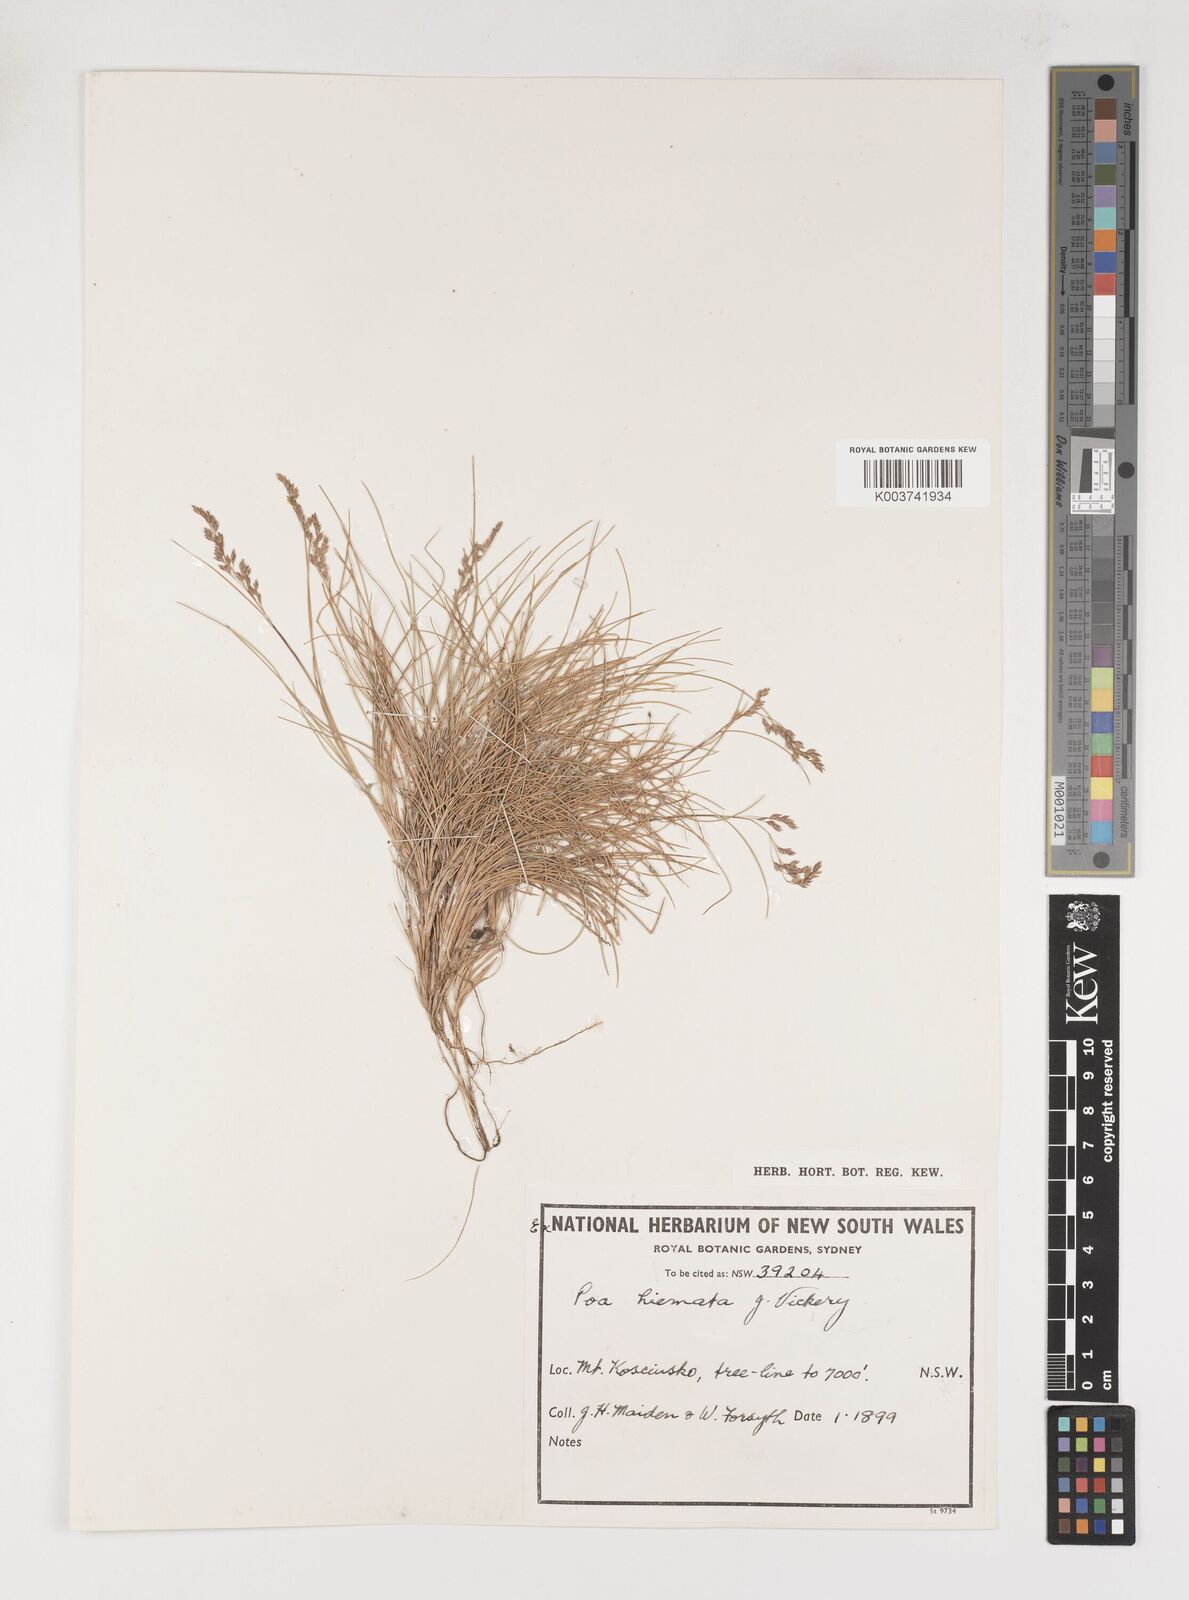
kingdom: Plantae
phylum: Tracheophyta
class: Liliopsida
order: Poales
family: Poaceae
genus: Poa
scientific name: Poa hiemata
